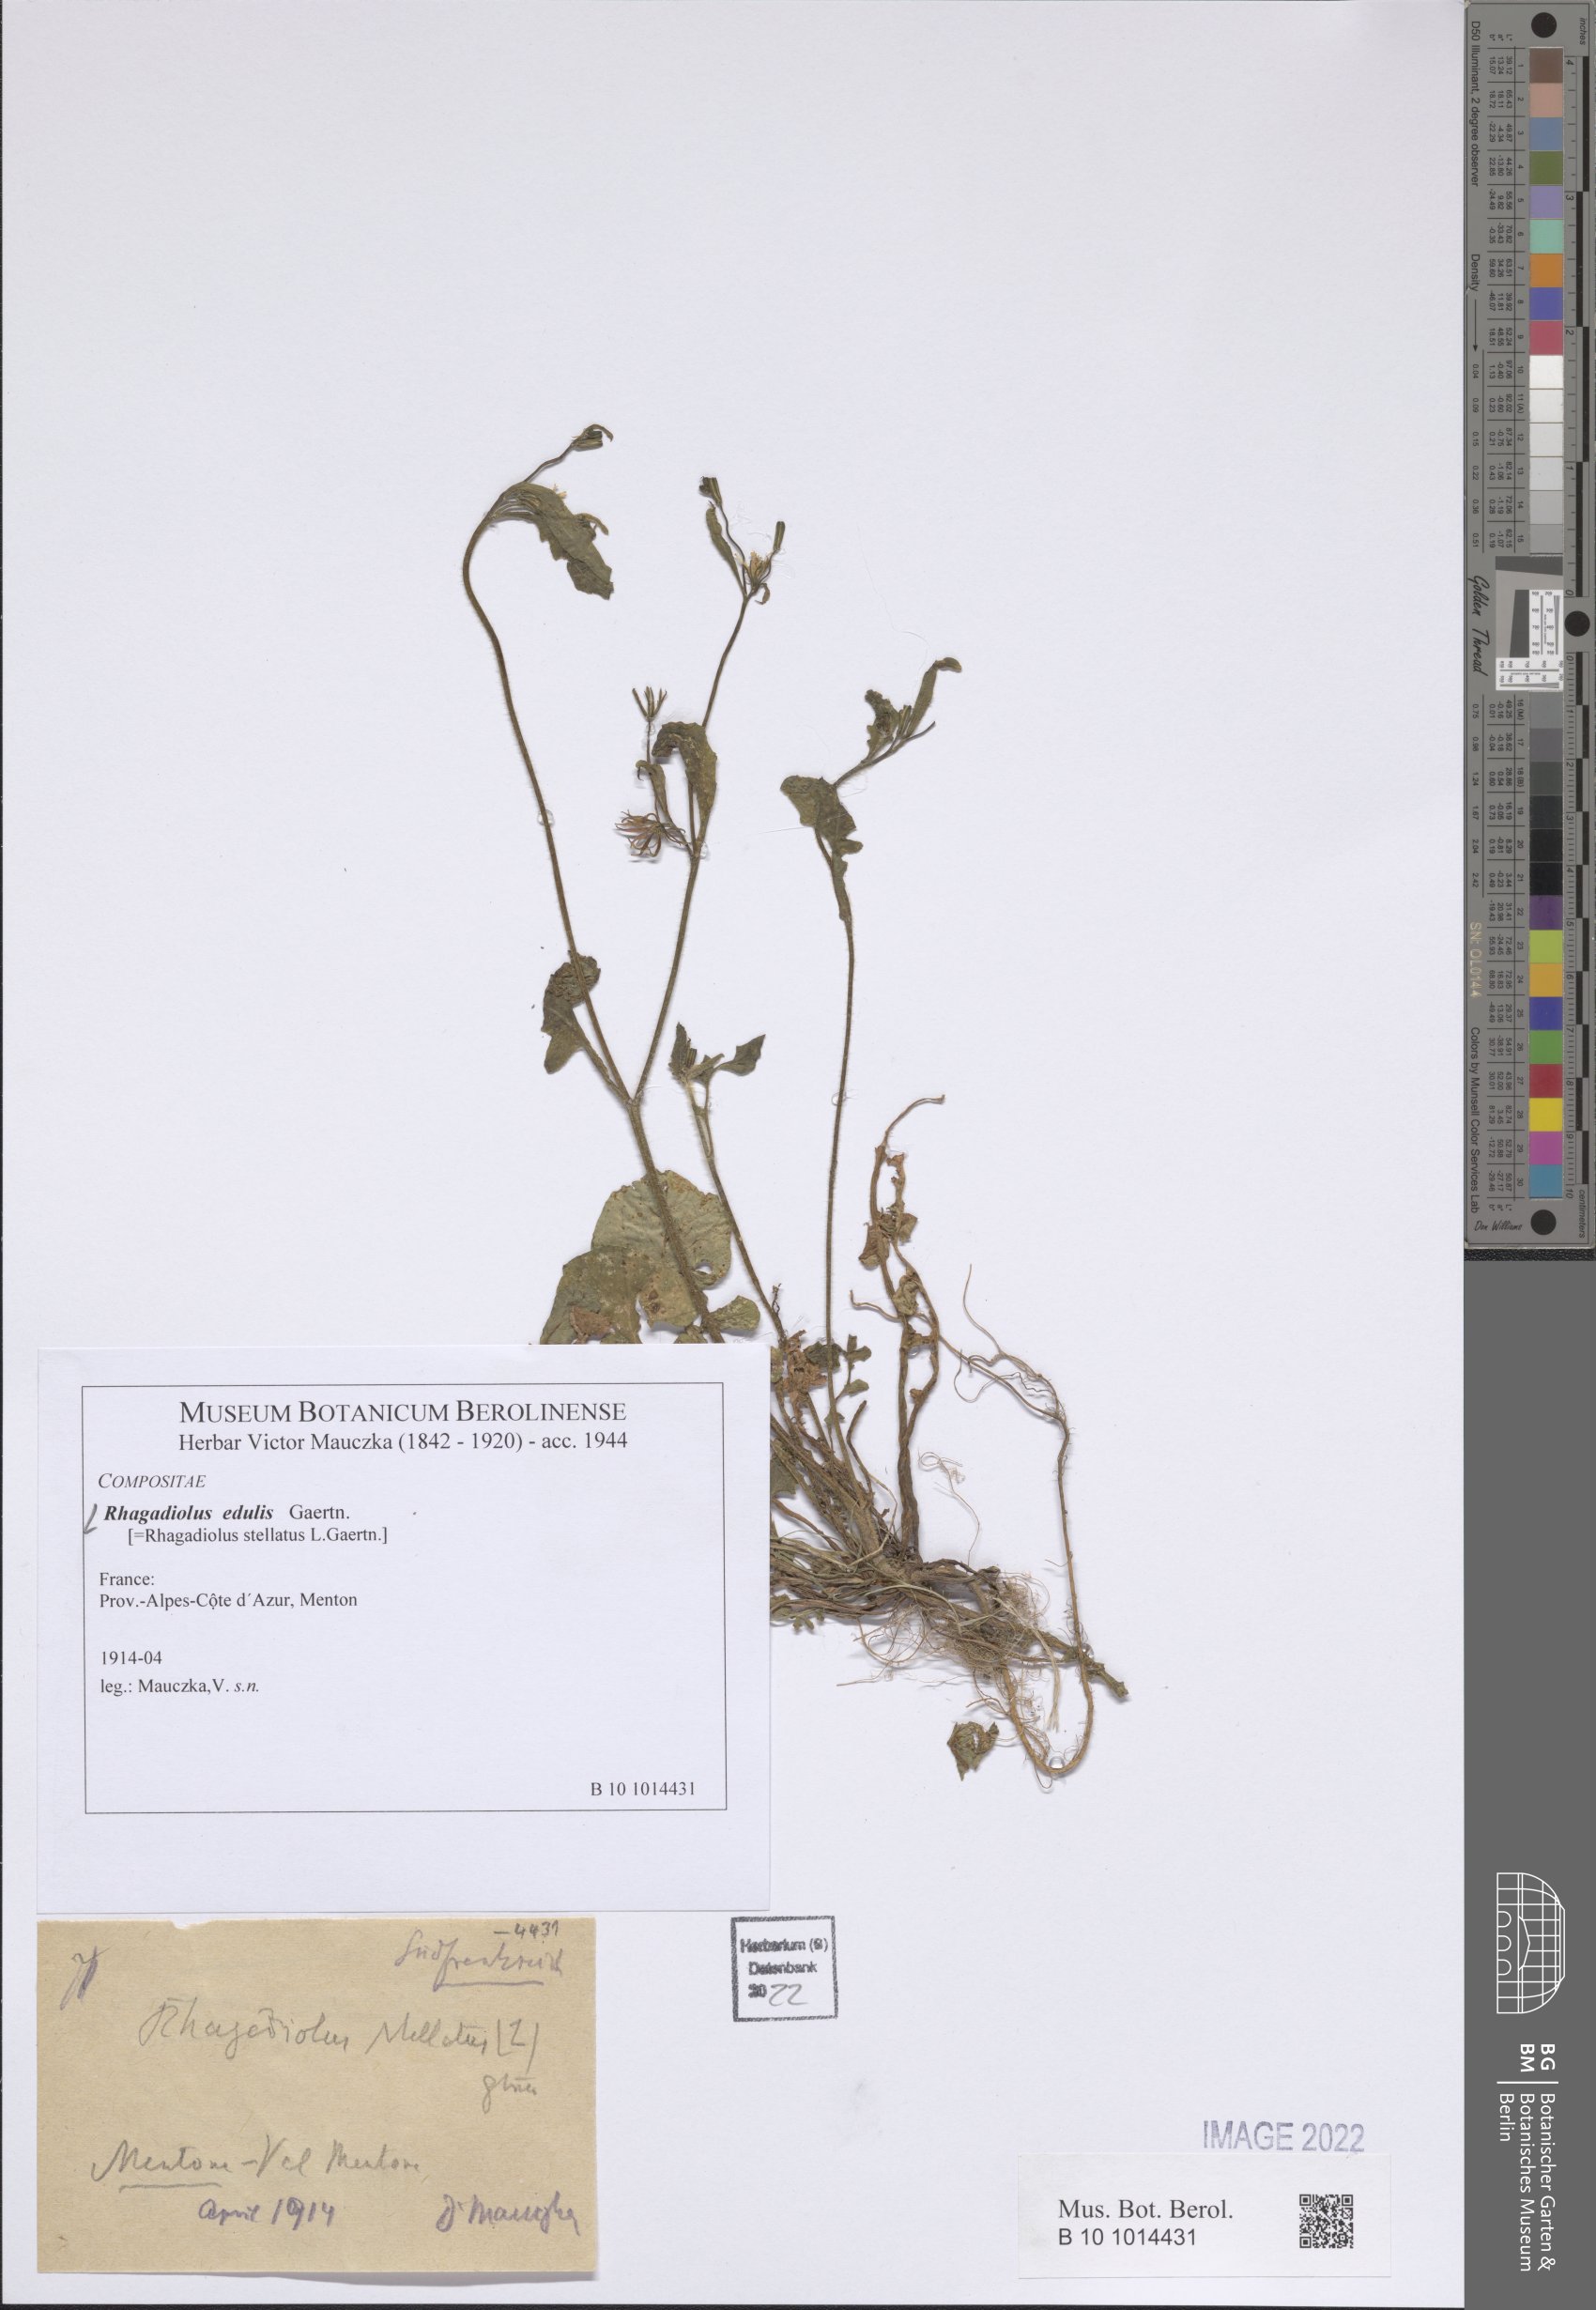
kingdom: Plantae
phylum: Tracheophyta
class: Magnoliopsida
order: Asterales
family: Asteraceae
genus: Rhagadiolus
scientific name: Rhagadiolus edulis
